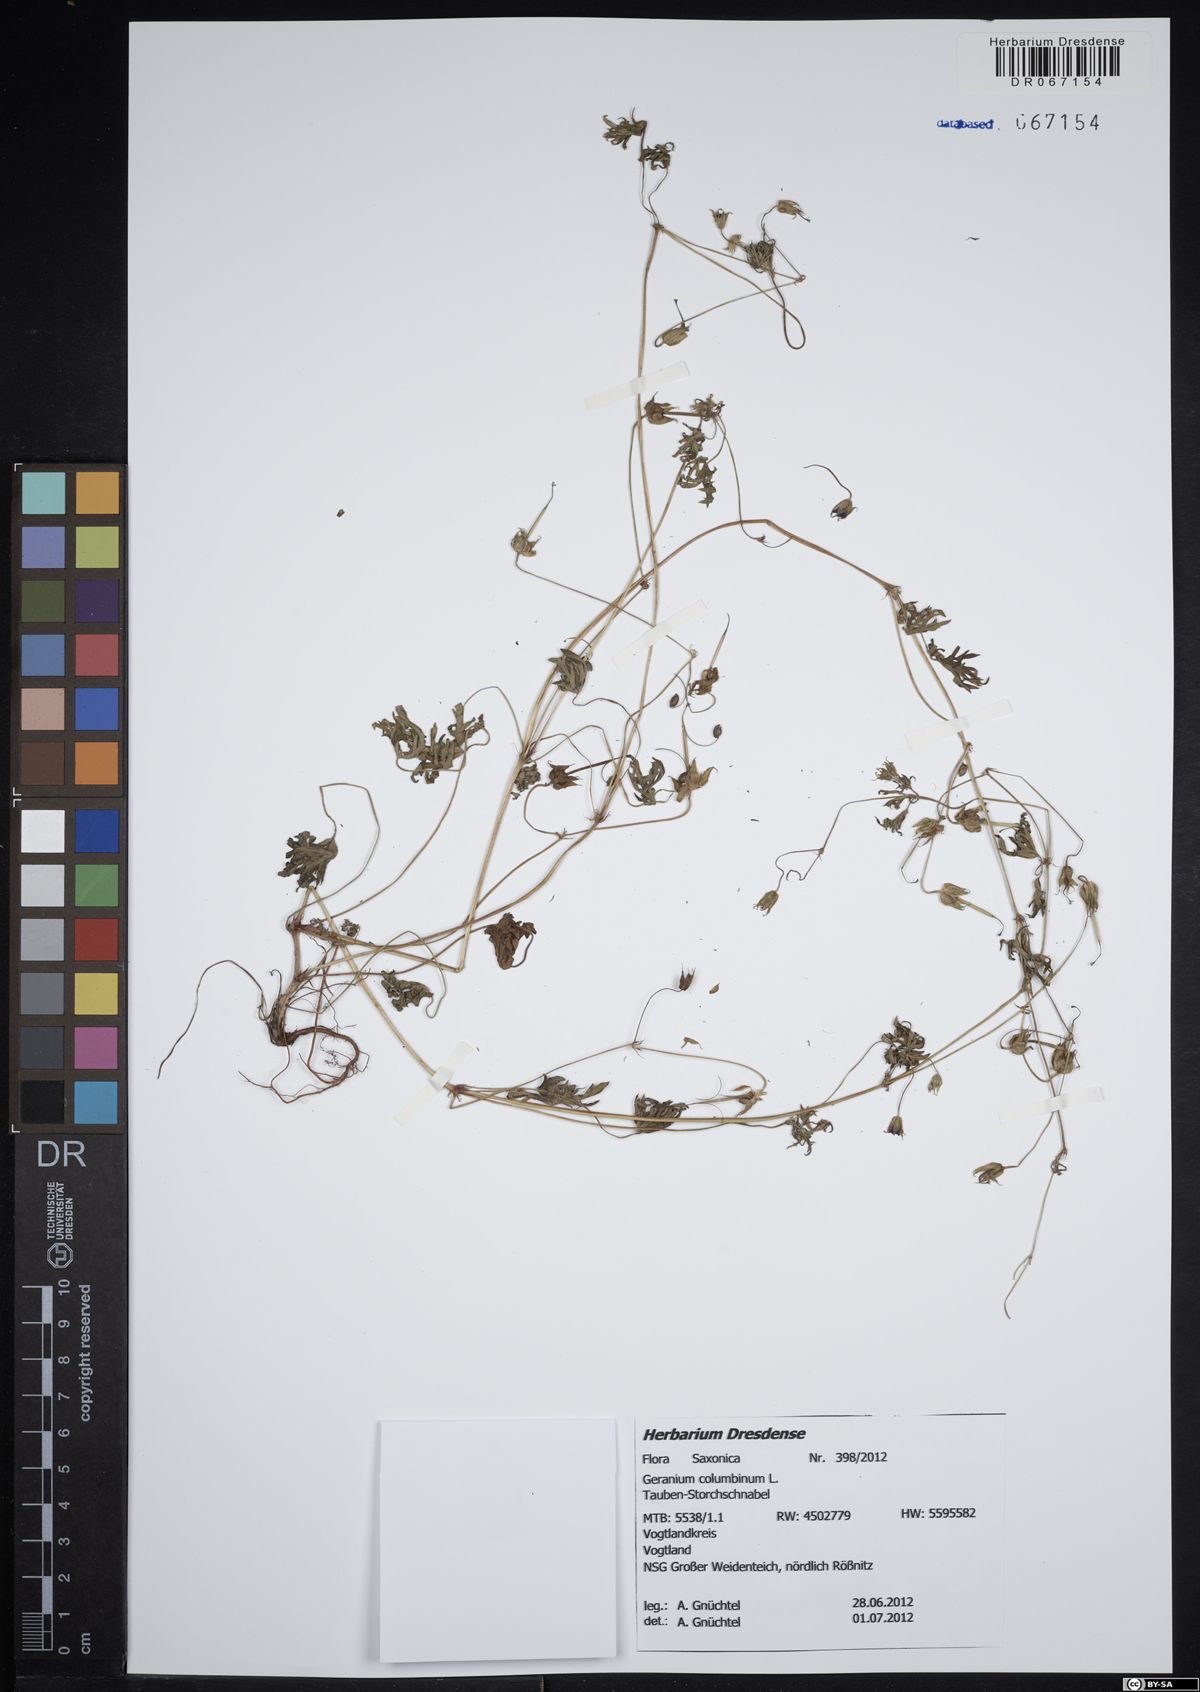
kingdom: Plantae
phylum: Tracheophyta
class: Magnoliopsida
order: Geraniales
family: Geraniaceae
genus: Geranium
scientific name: Geranium columbinum
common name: Long-stalked crane's-bill
